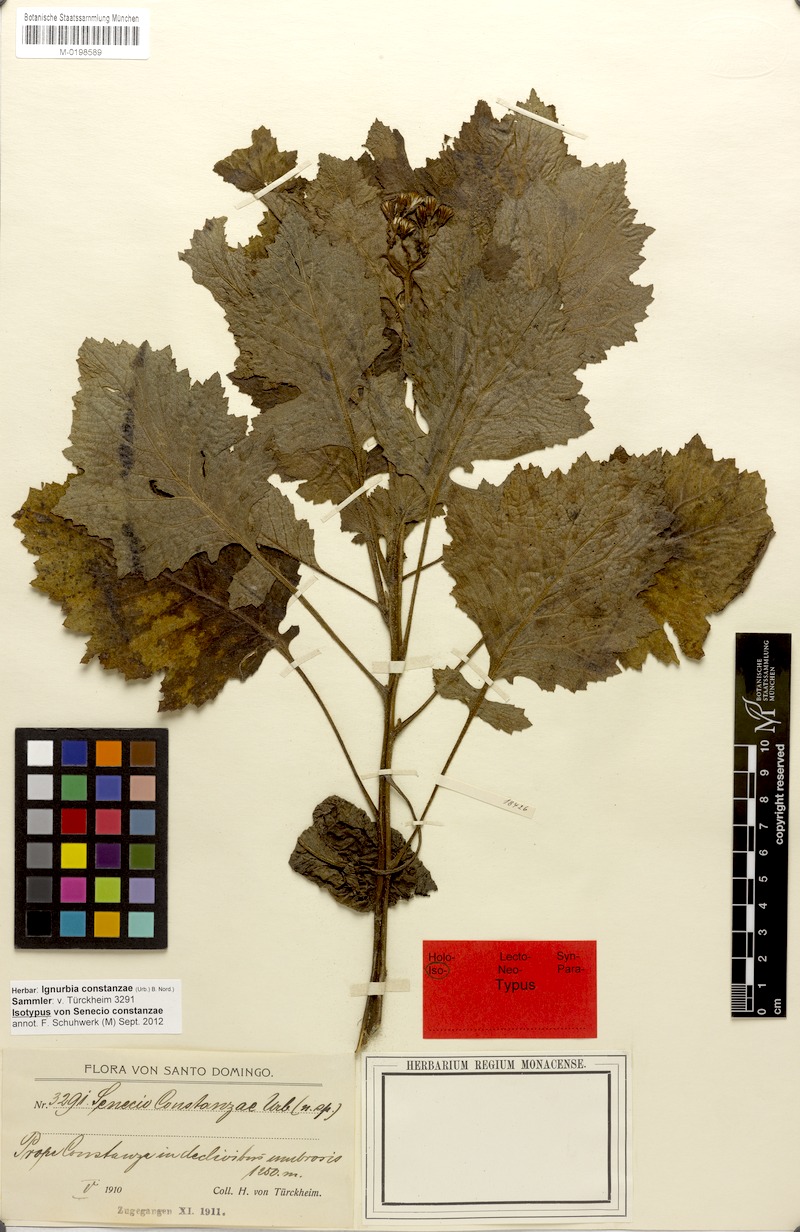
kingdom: Plantae
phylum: Tracheophyta
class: Magnoliopsida
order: Asterales
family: Asteraceae
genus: Ignurbia
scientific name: Ignurbia constanzae
